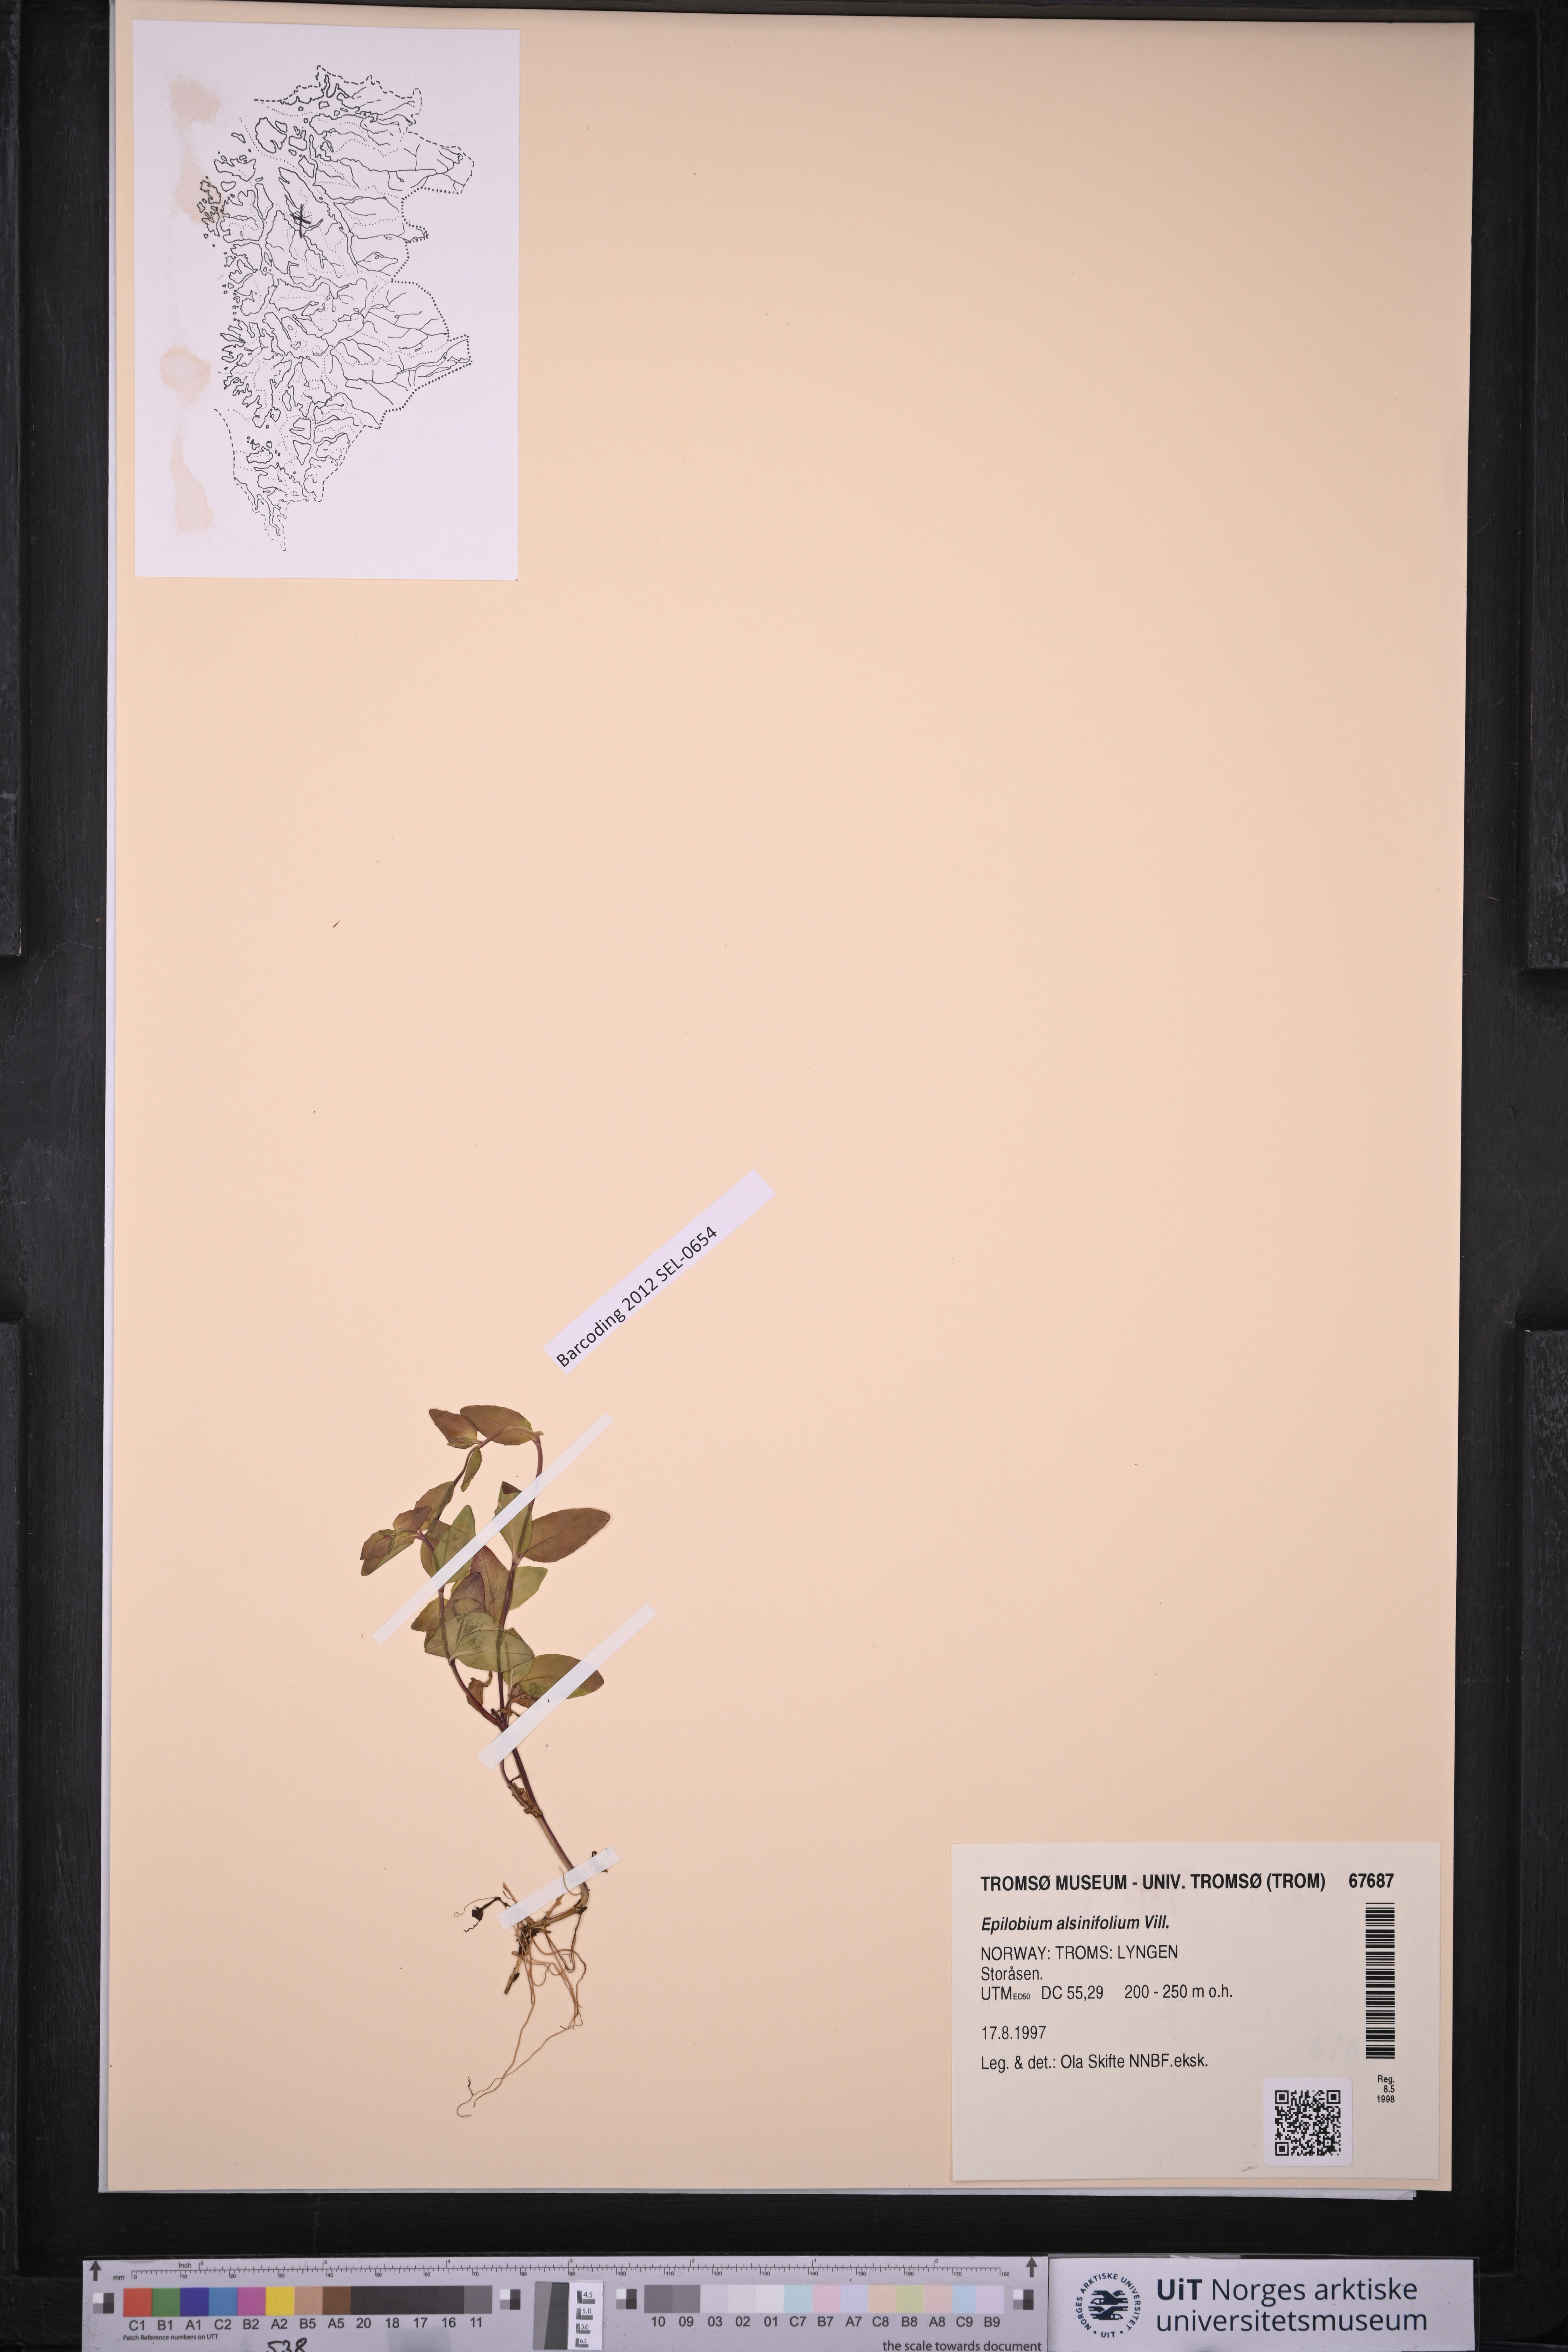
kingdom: Plantae
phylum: Tracheophyta
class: Magnoliopsida
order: Myrtales
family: Onagraceae
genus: Epilobium
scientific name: Epilobium alsinifolium
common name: Chickweed willowherb
